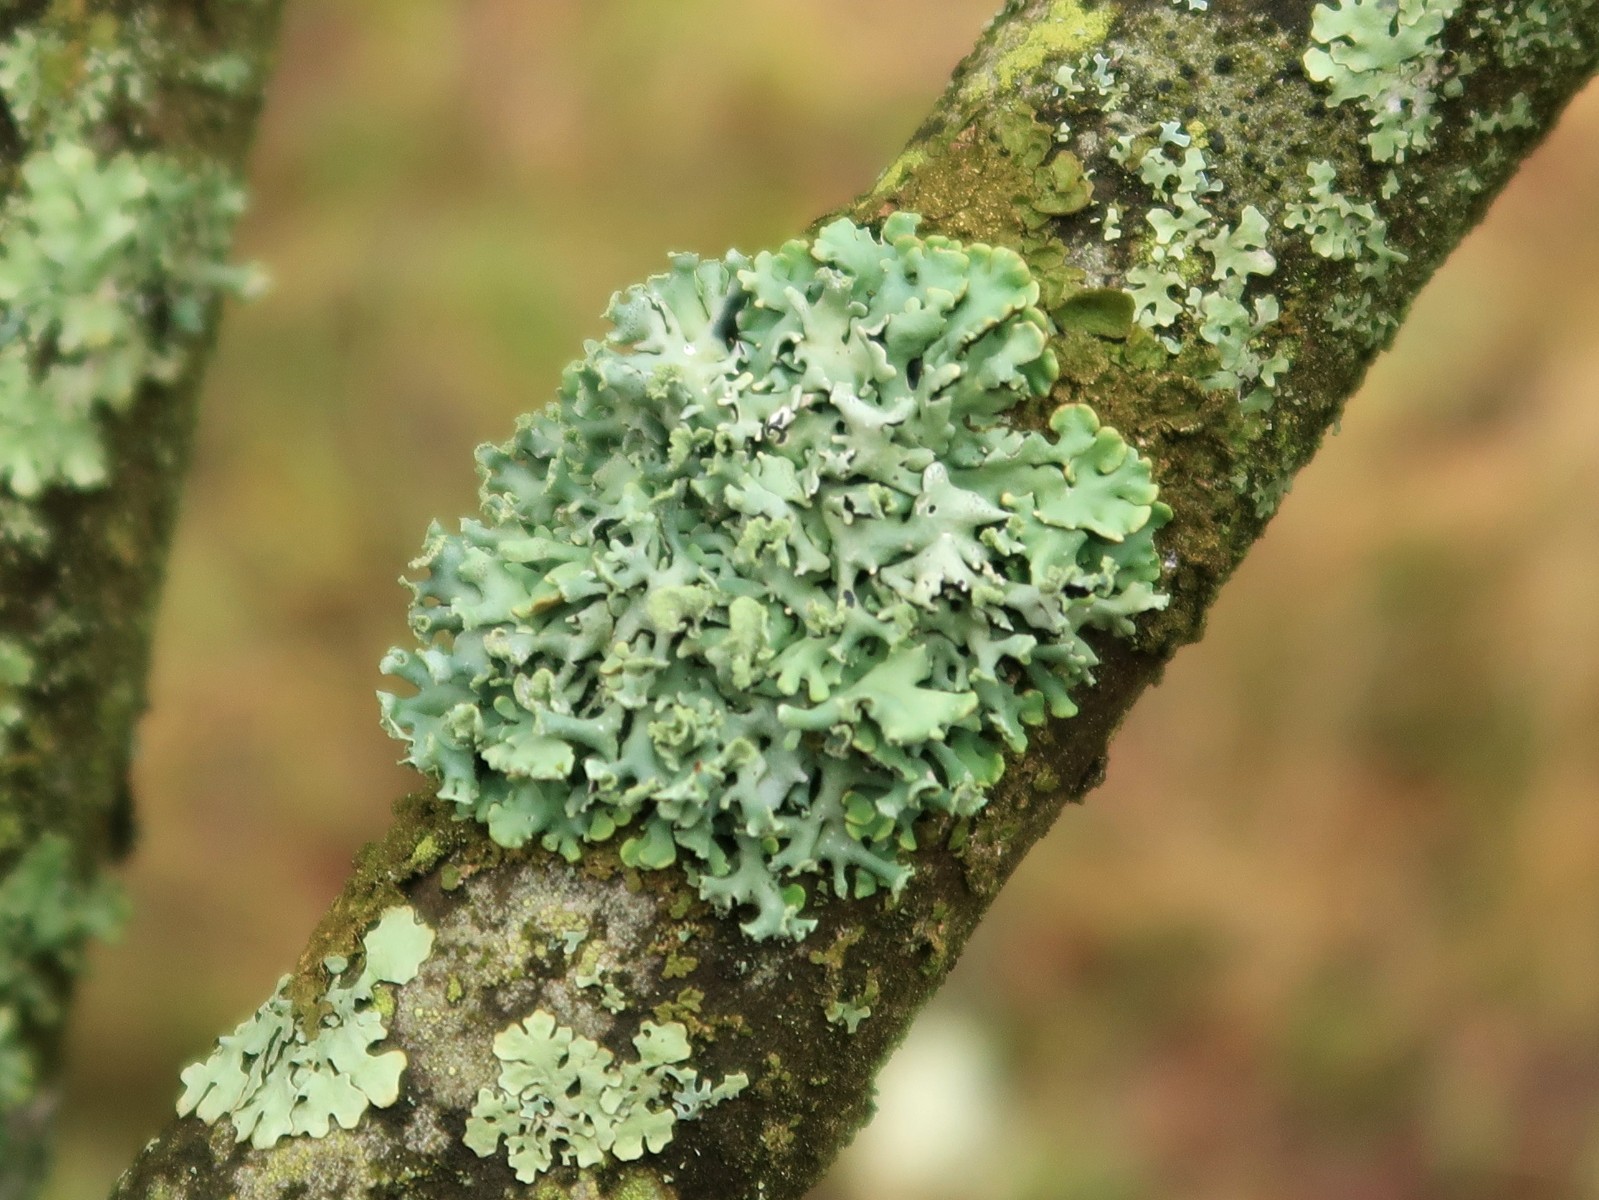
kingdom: Fungi
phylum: Ascomycota
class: Lecanoromycetes
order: Lecanorales
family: Parmeliaceae
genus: Hypogymnia
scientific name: Hypogymnia physodes
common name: almindelig kvistlav
